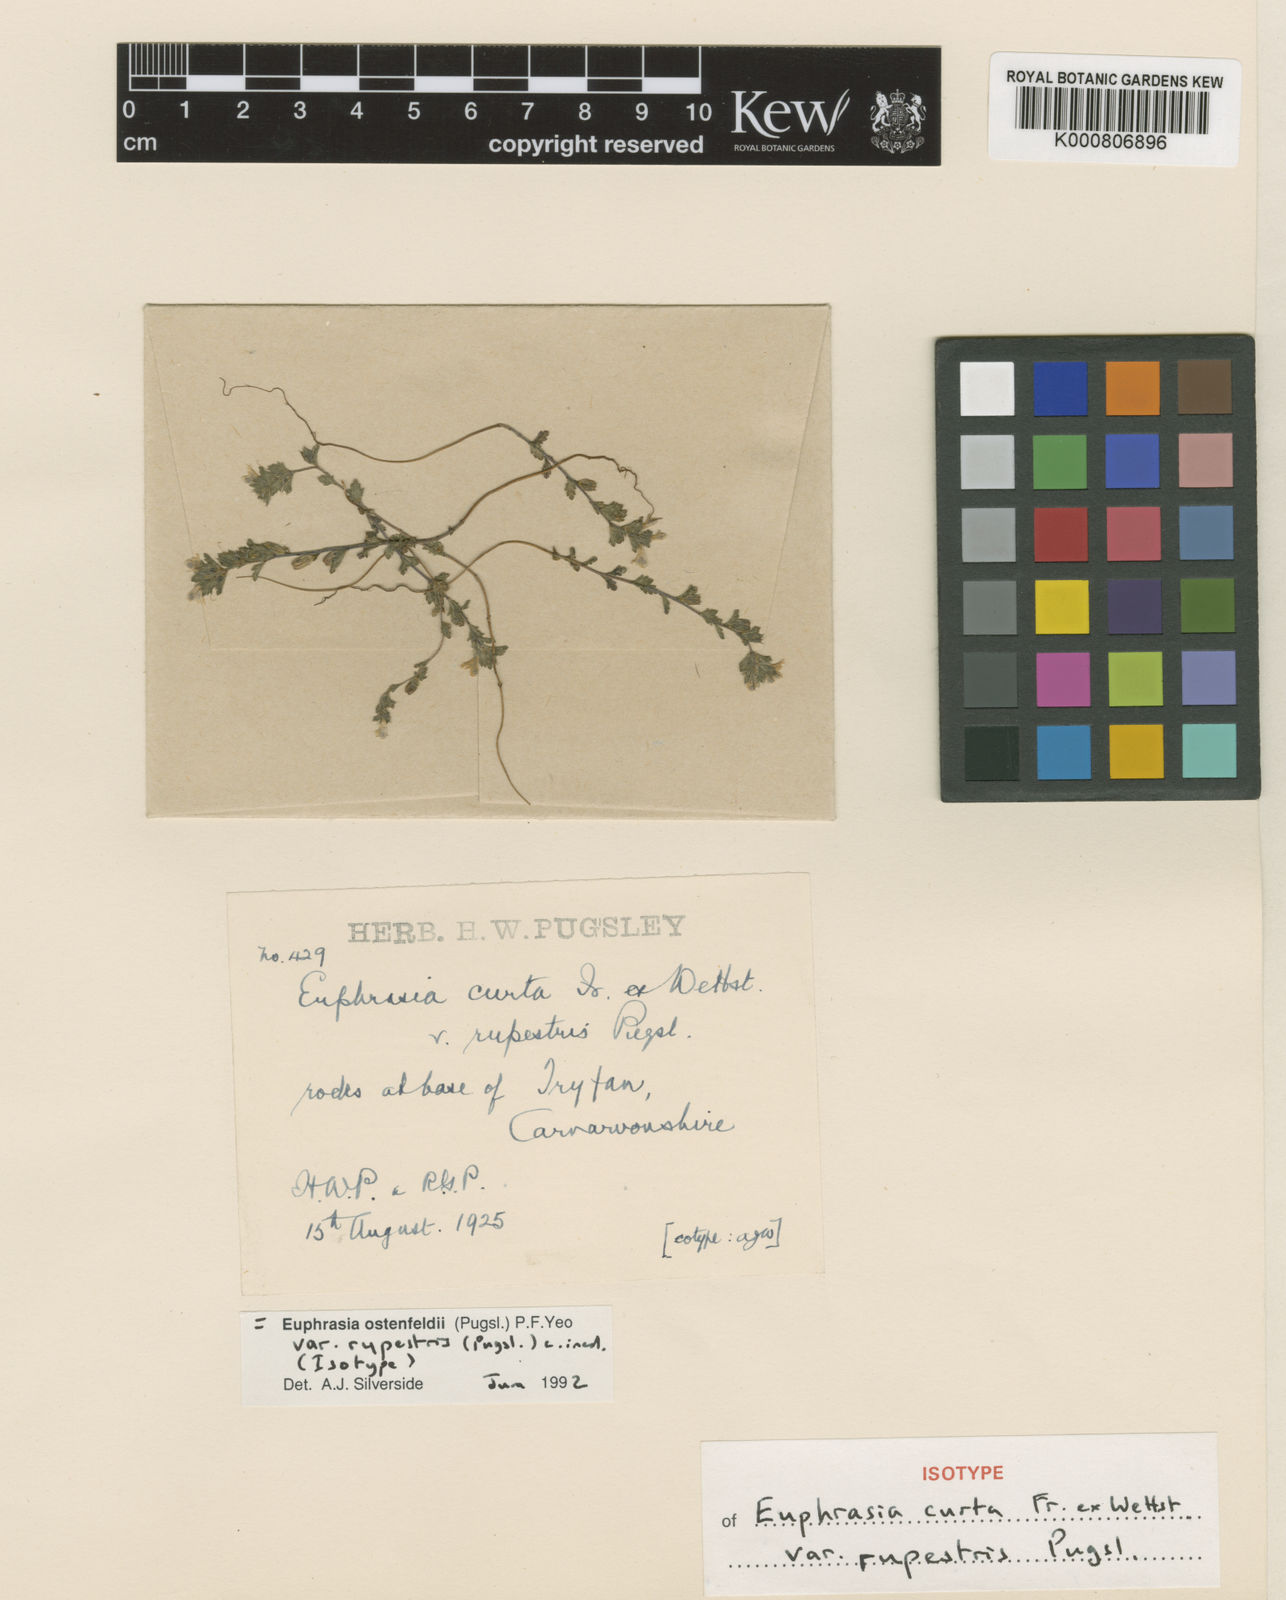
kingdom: Plantae
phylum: Tracheophyta
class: Magnoliopsida
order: Lamiales
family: Orobanchaceae
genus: Euphrasia
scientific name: Euphrasia ostenfeldii
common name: An eyebright
